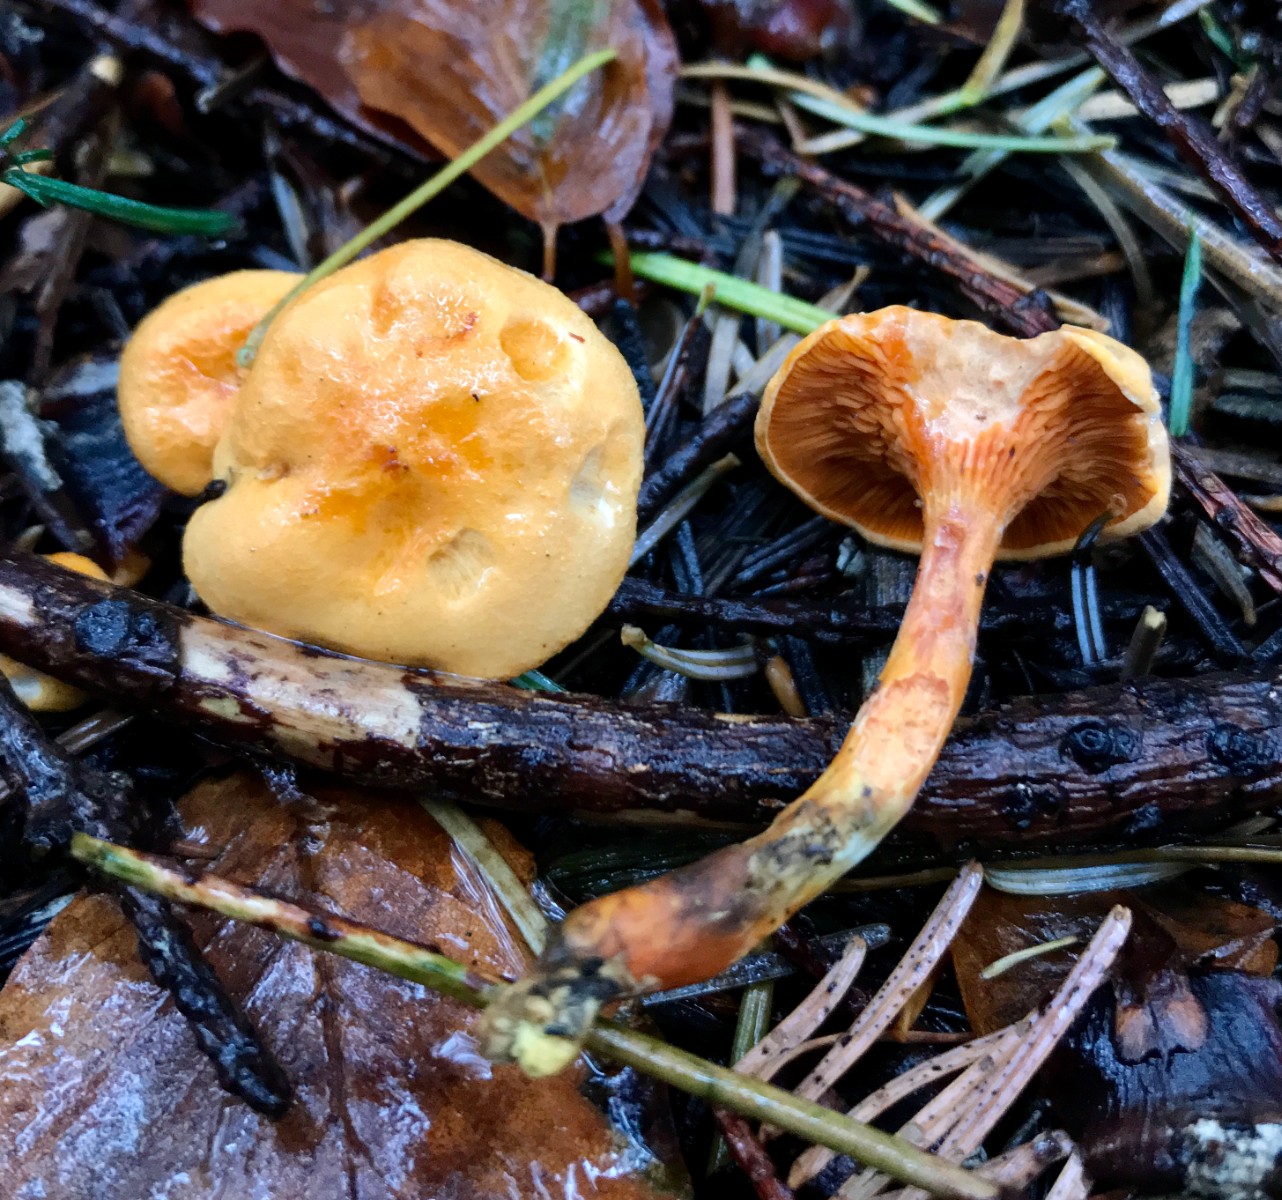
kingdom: Fungi
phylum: Basidiomycota
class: Agaricomycetes
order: Boletales
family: Hygrophoropsidaceae
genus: Hygrophoropsis
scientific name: Hygrophoropsis aurantiaca
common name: almindelig orangekantarel
